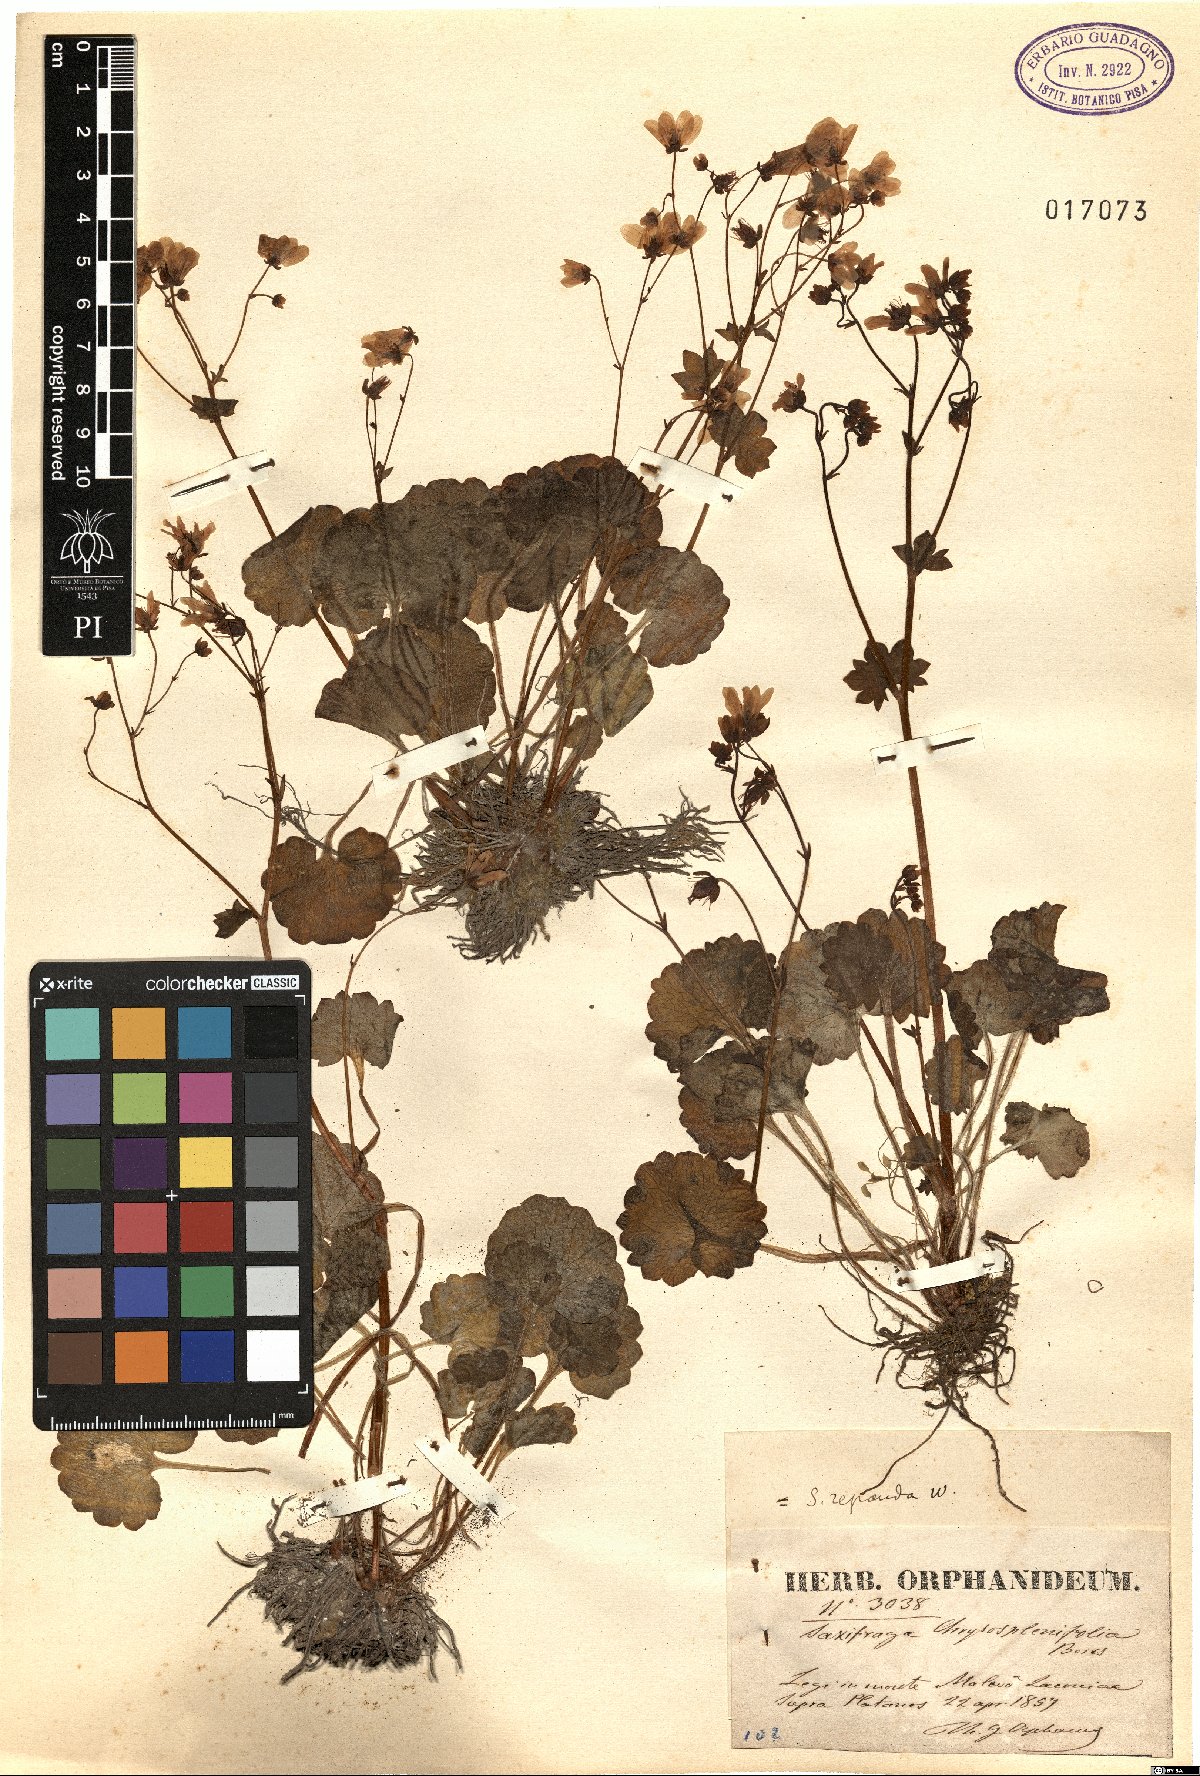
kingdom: Plantae
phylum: Tracheophyta
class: Magnoliopsida
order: Saxifragales
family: Saxifragaceae
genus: Saxifraga
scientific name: Saxifraga repanda
